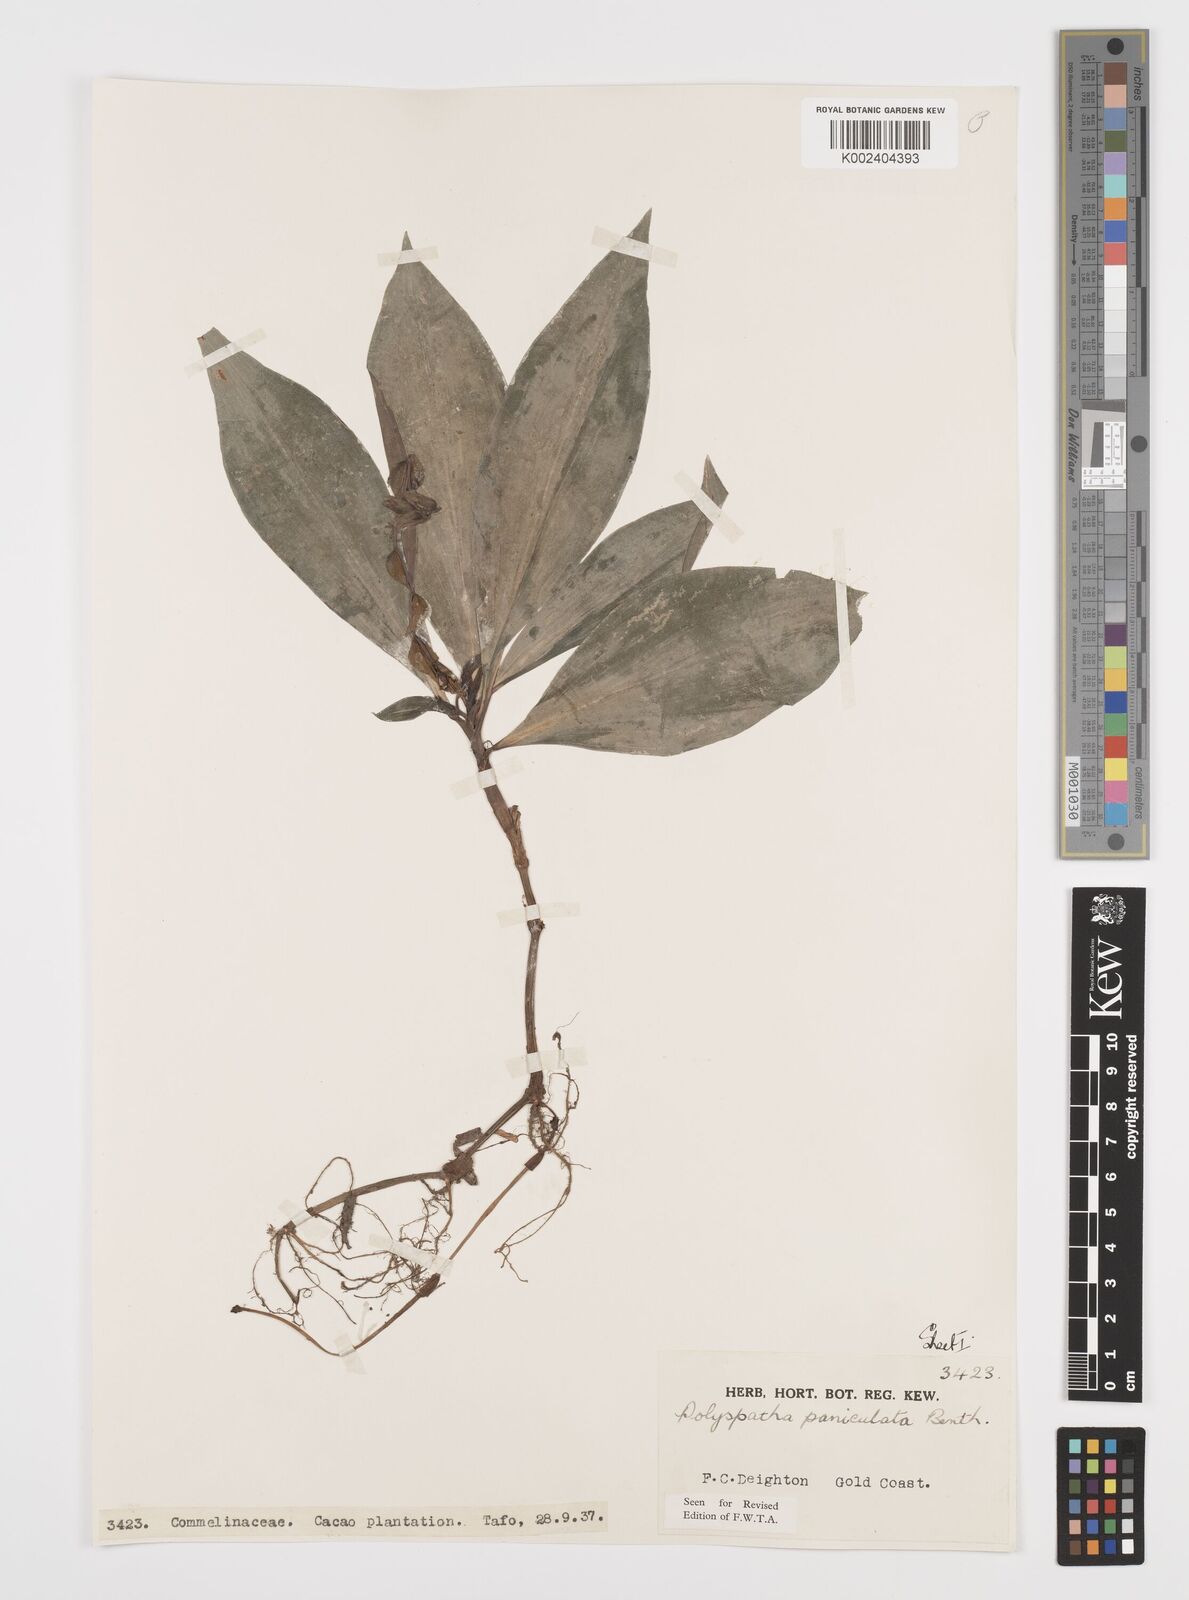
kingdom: Plantae
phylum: Tracheophyta
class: Liliopsida
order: Commelinales
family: Commelinaceae
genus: Polyspatha
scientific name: Polyspatha paniculata
